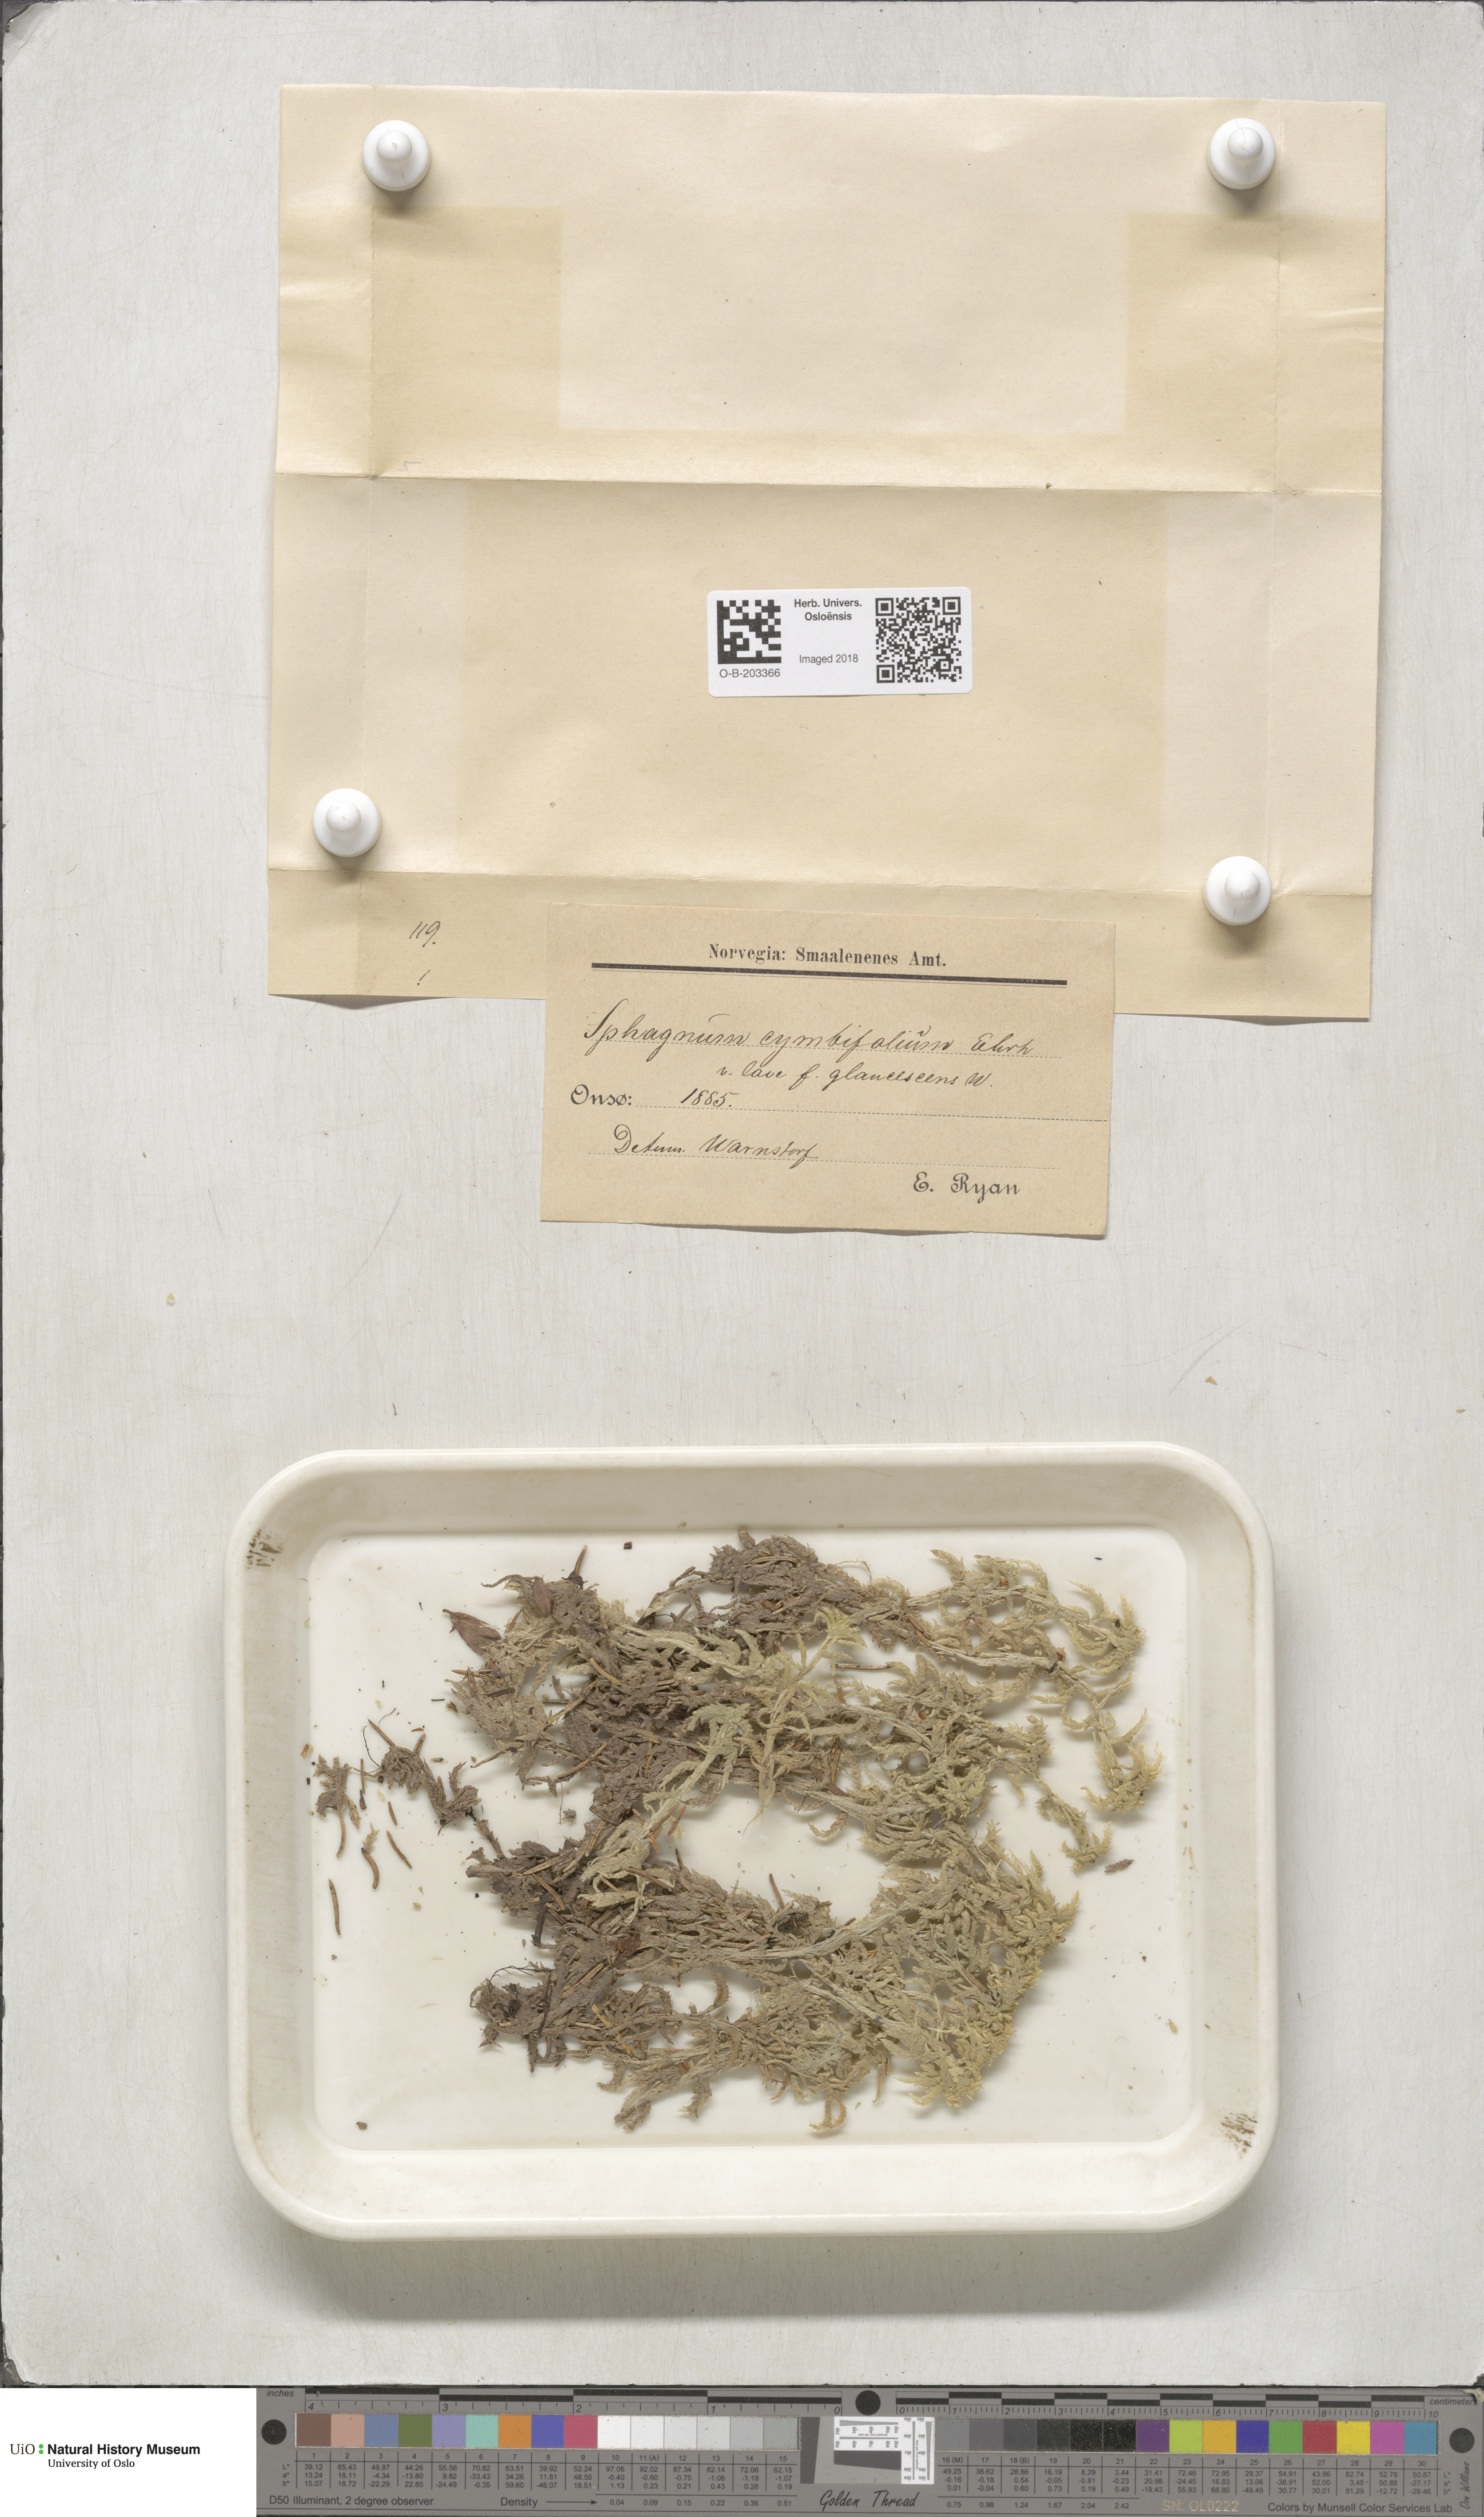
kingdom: Plantae
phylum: Bryophyta
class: Sphagnopsida
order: Sphagnales
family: Sphagnaceae
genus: Sphagnum
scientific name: Sphagnum palustre
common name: Blunt-leaved bog-moss
